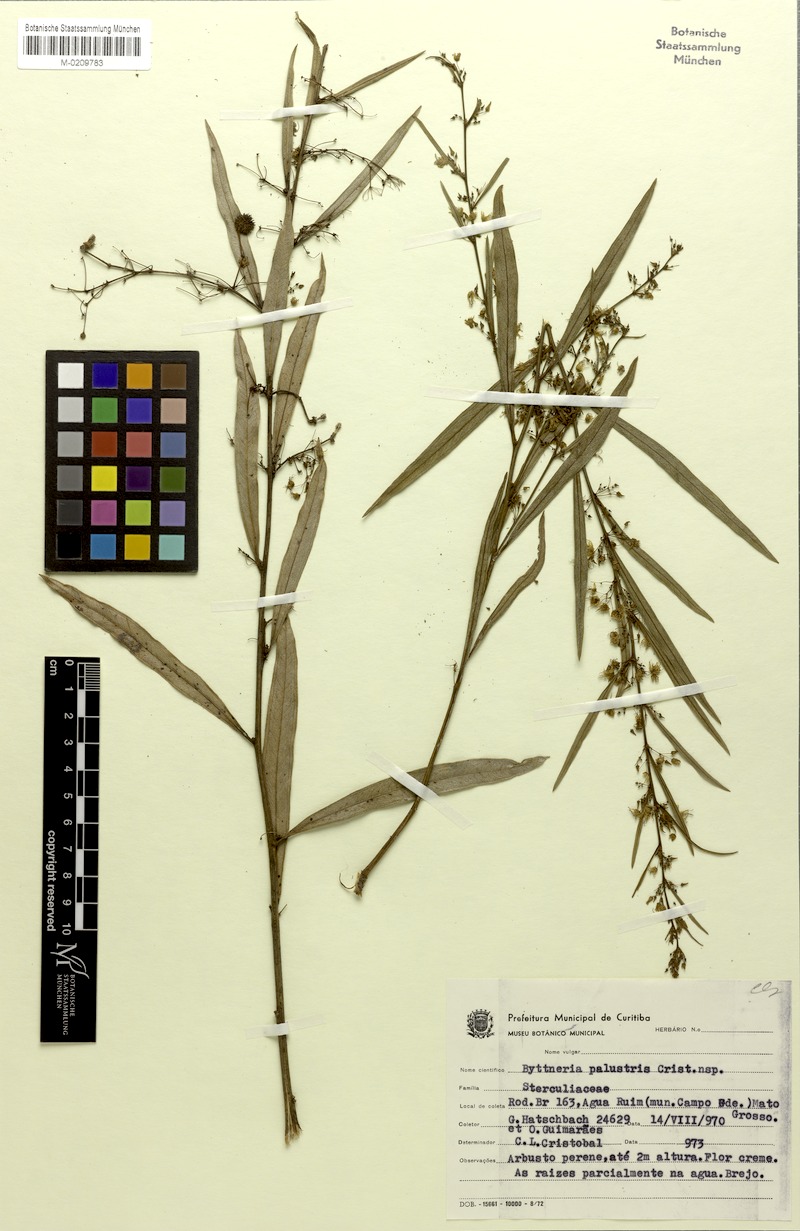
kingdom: Plantae
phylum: Tracheophyta
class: Magnoliopsida
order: Malvales
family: Malvaceae
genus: Byttneria
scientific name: Byttneria palustris
